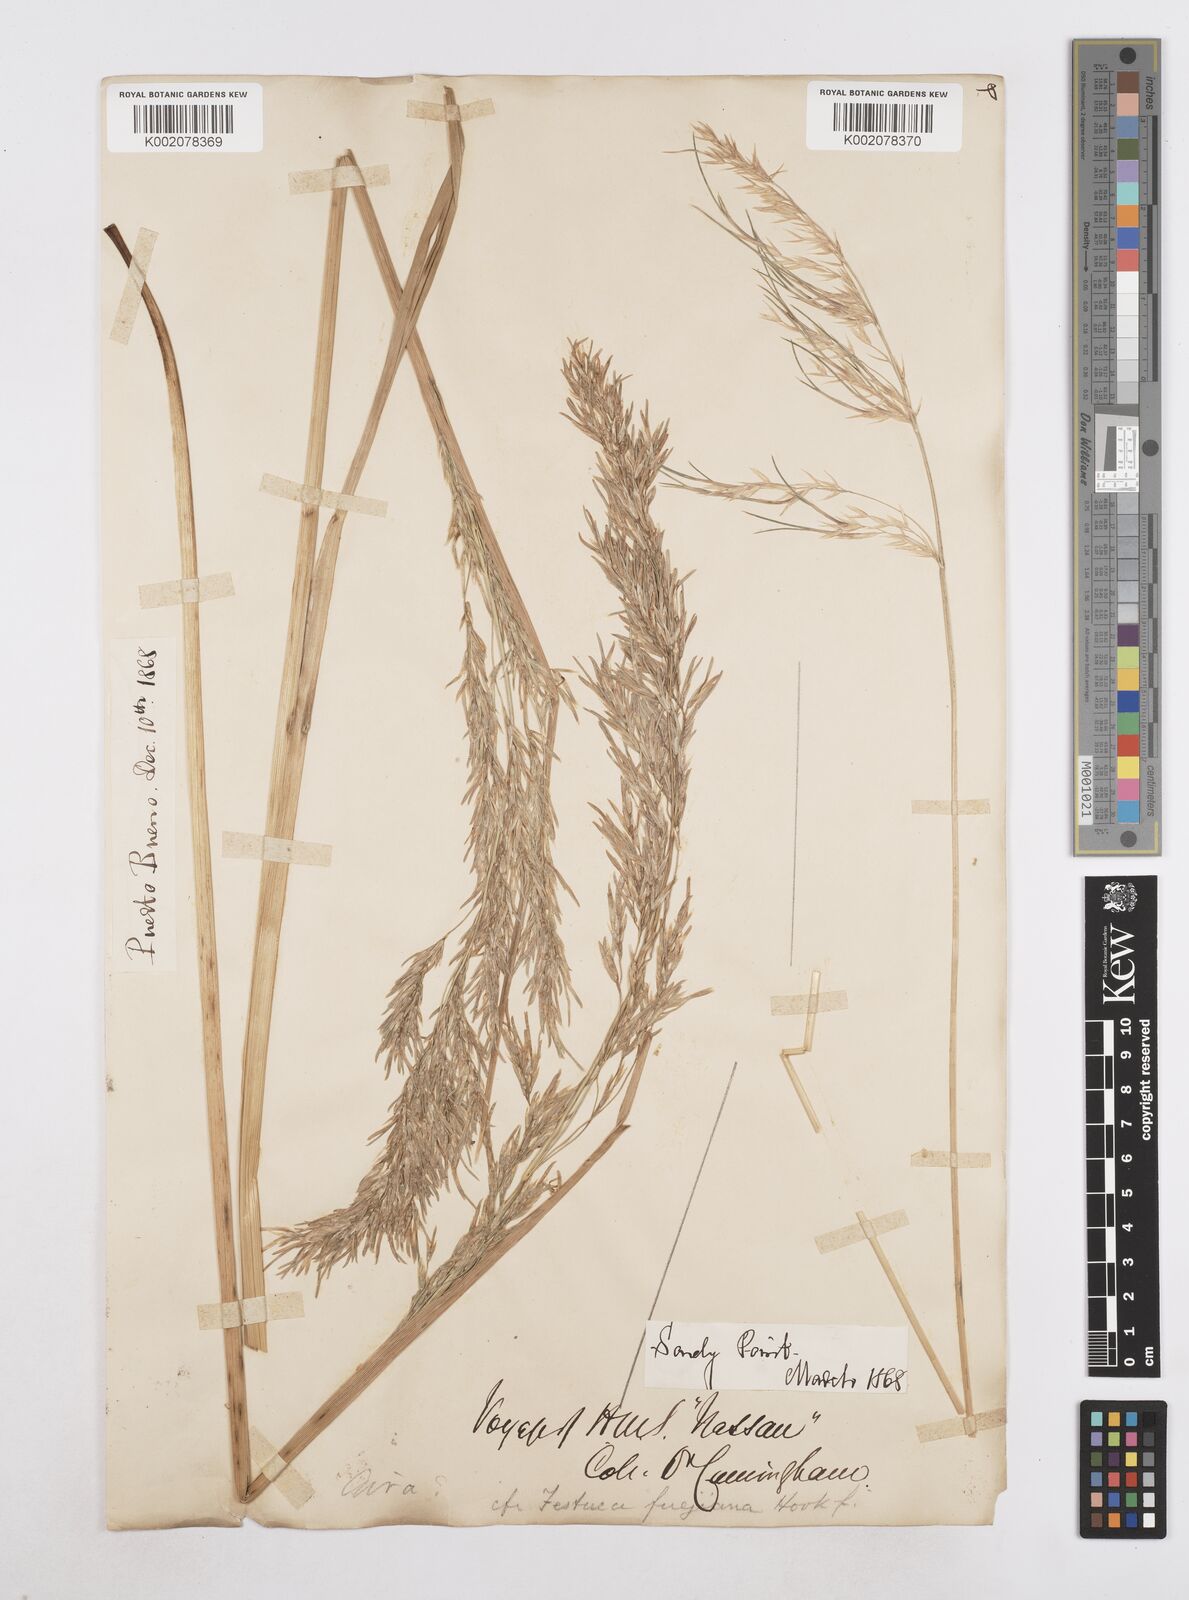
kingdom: Plantae
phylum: Tracheophyta
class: Liliopsida
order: Poales
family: Poaceae
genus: Poa
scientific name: Poa alopecurus
